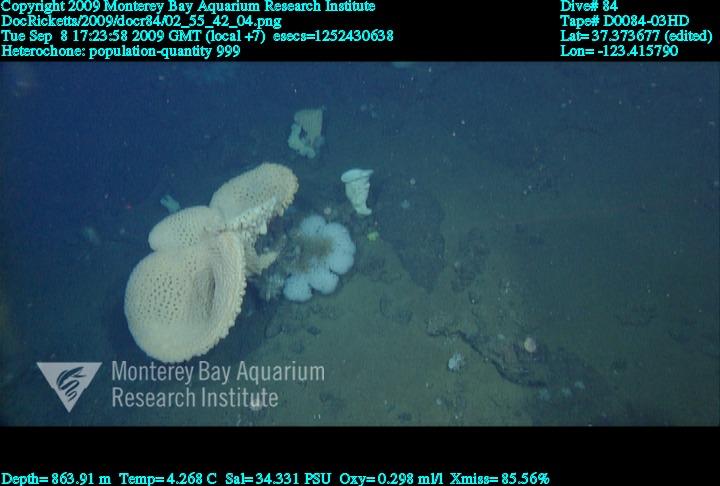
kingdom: Animalia
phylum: Porifera
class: Hexactinellida
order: Sceptrulophora
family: Aphrocallistidae
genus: Heterochone
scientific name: Heterochone
